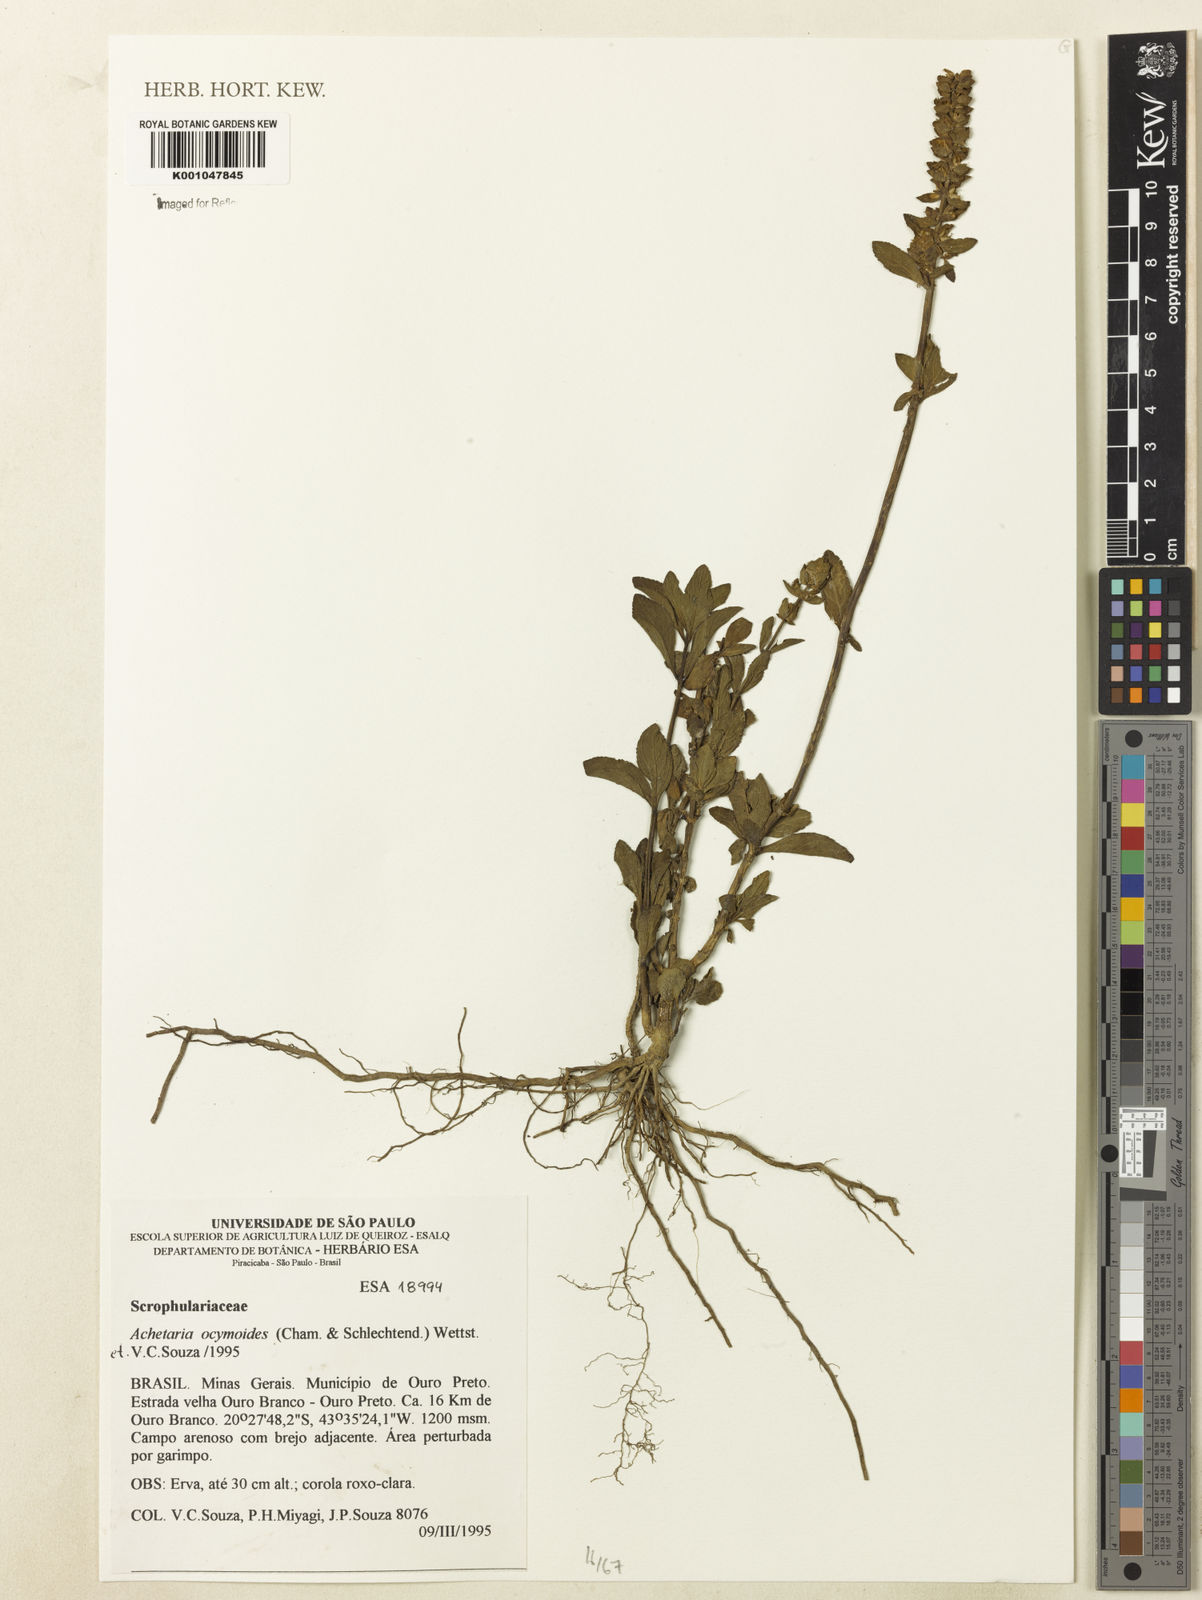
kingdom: Plantae
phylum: Tracheophyta
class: Magnoliopsida
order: Lamiales
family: Plantaginaceae
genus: Matourea
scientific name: Matourea ocymoides
